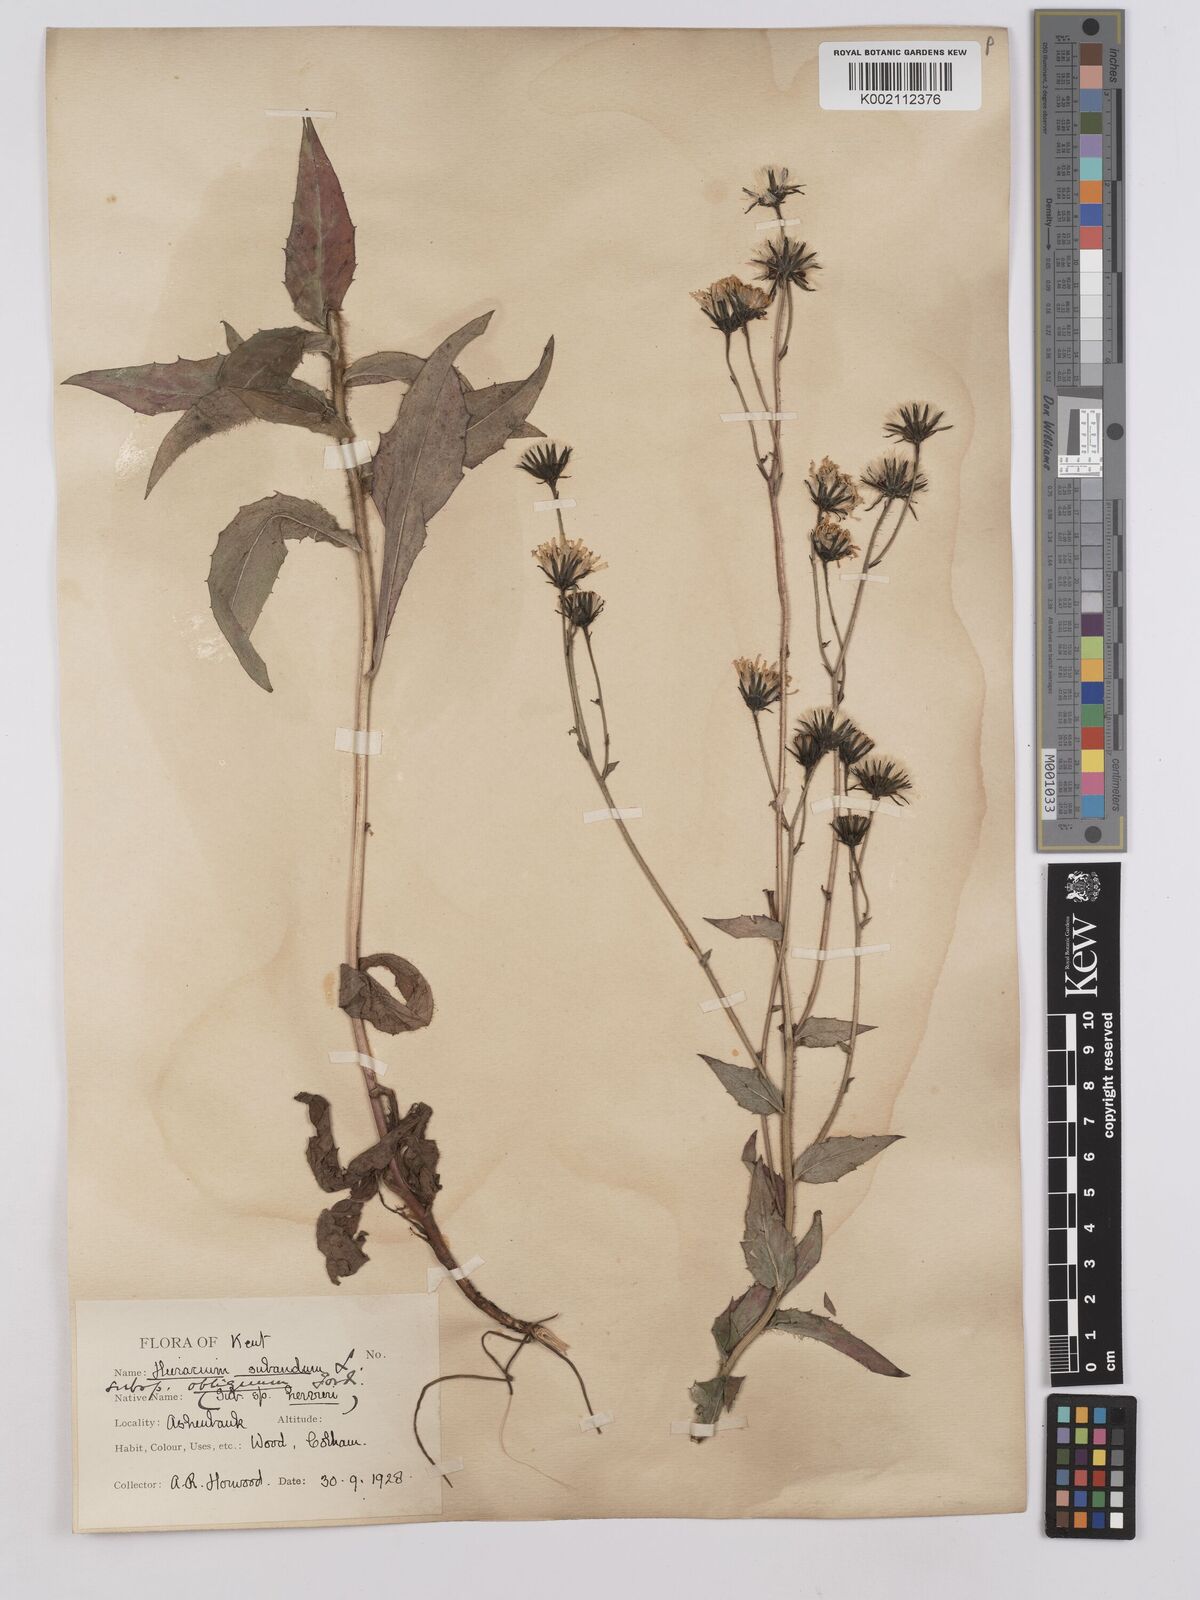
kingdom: Plantae
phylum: Tracheophyta
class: Magnoliopsida
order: Asterales
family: Asteraceae
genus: Hieracium
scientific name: Hieracium sabaudum
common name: New england hawkweed
